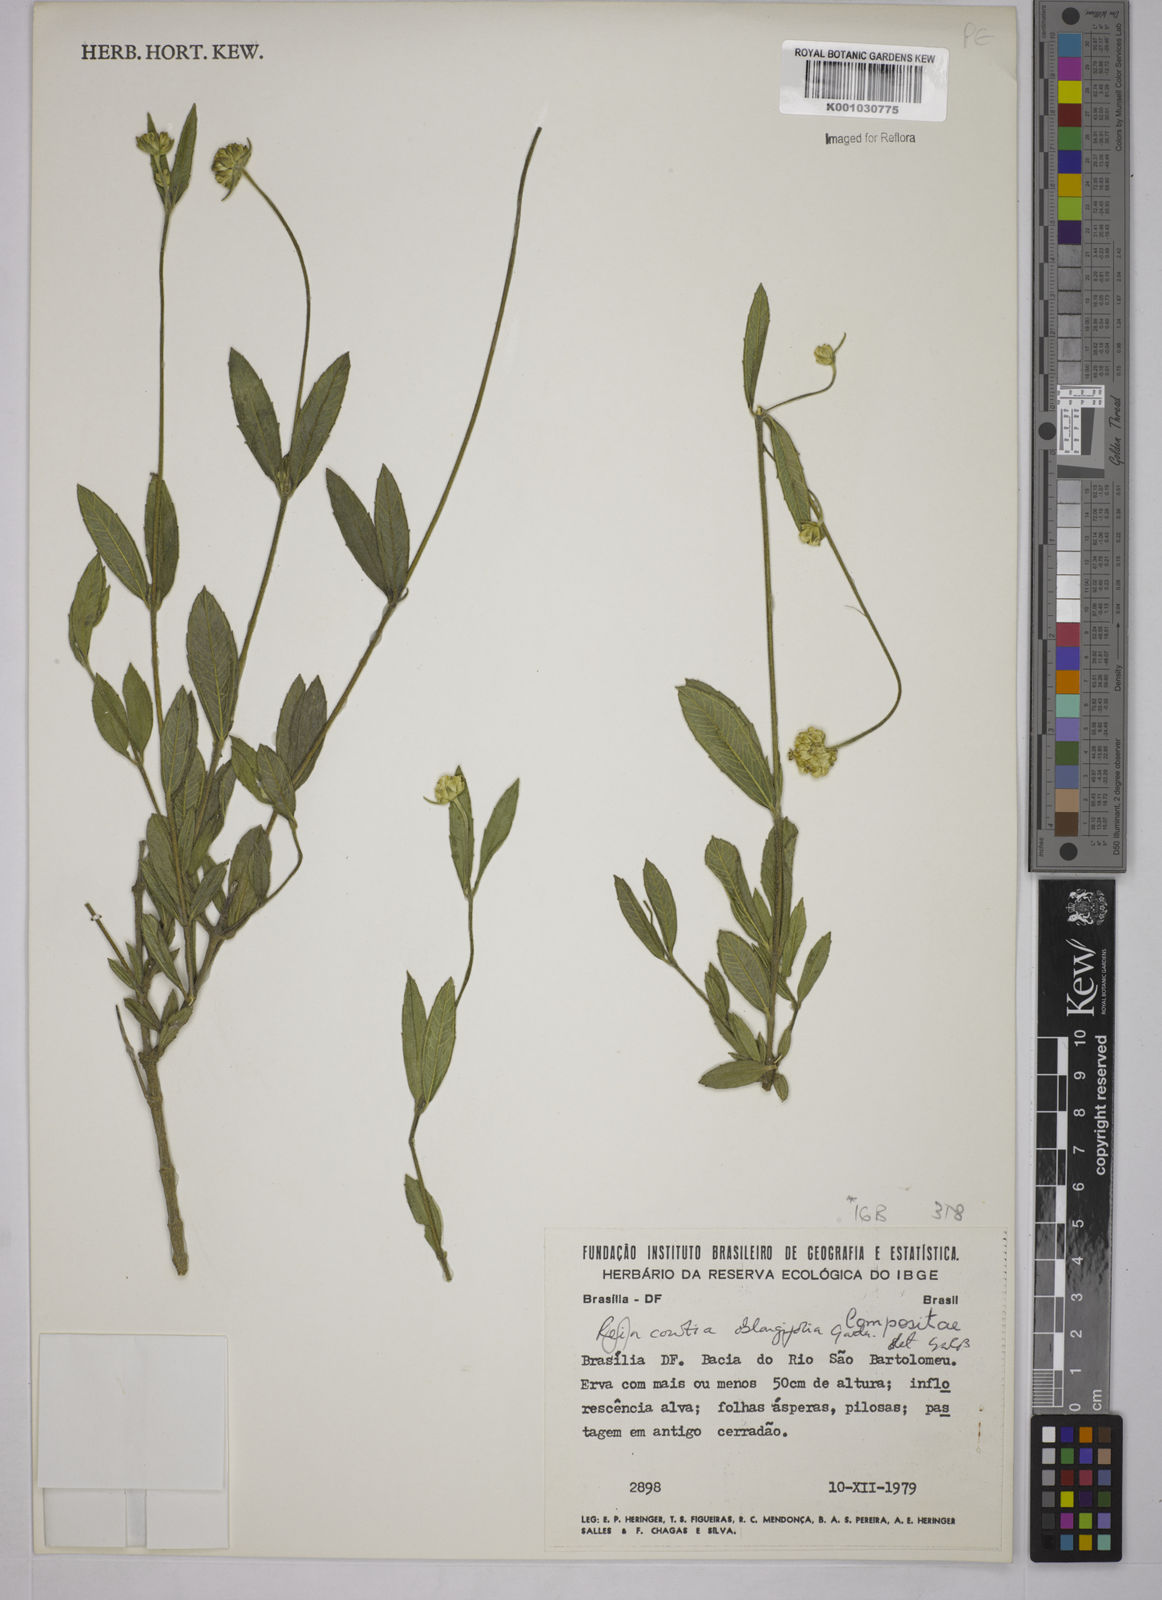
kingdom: Plantae
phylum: Tracheophyta
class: Magnoliopsida
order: Asterales
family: Asteraceae
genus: Riencourtia
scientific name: Riencourtia oblongifolia
